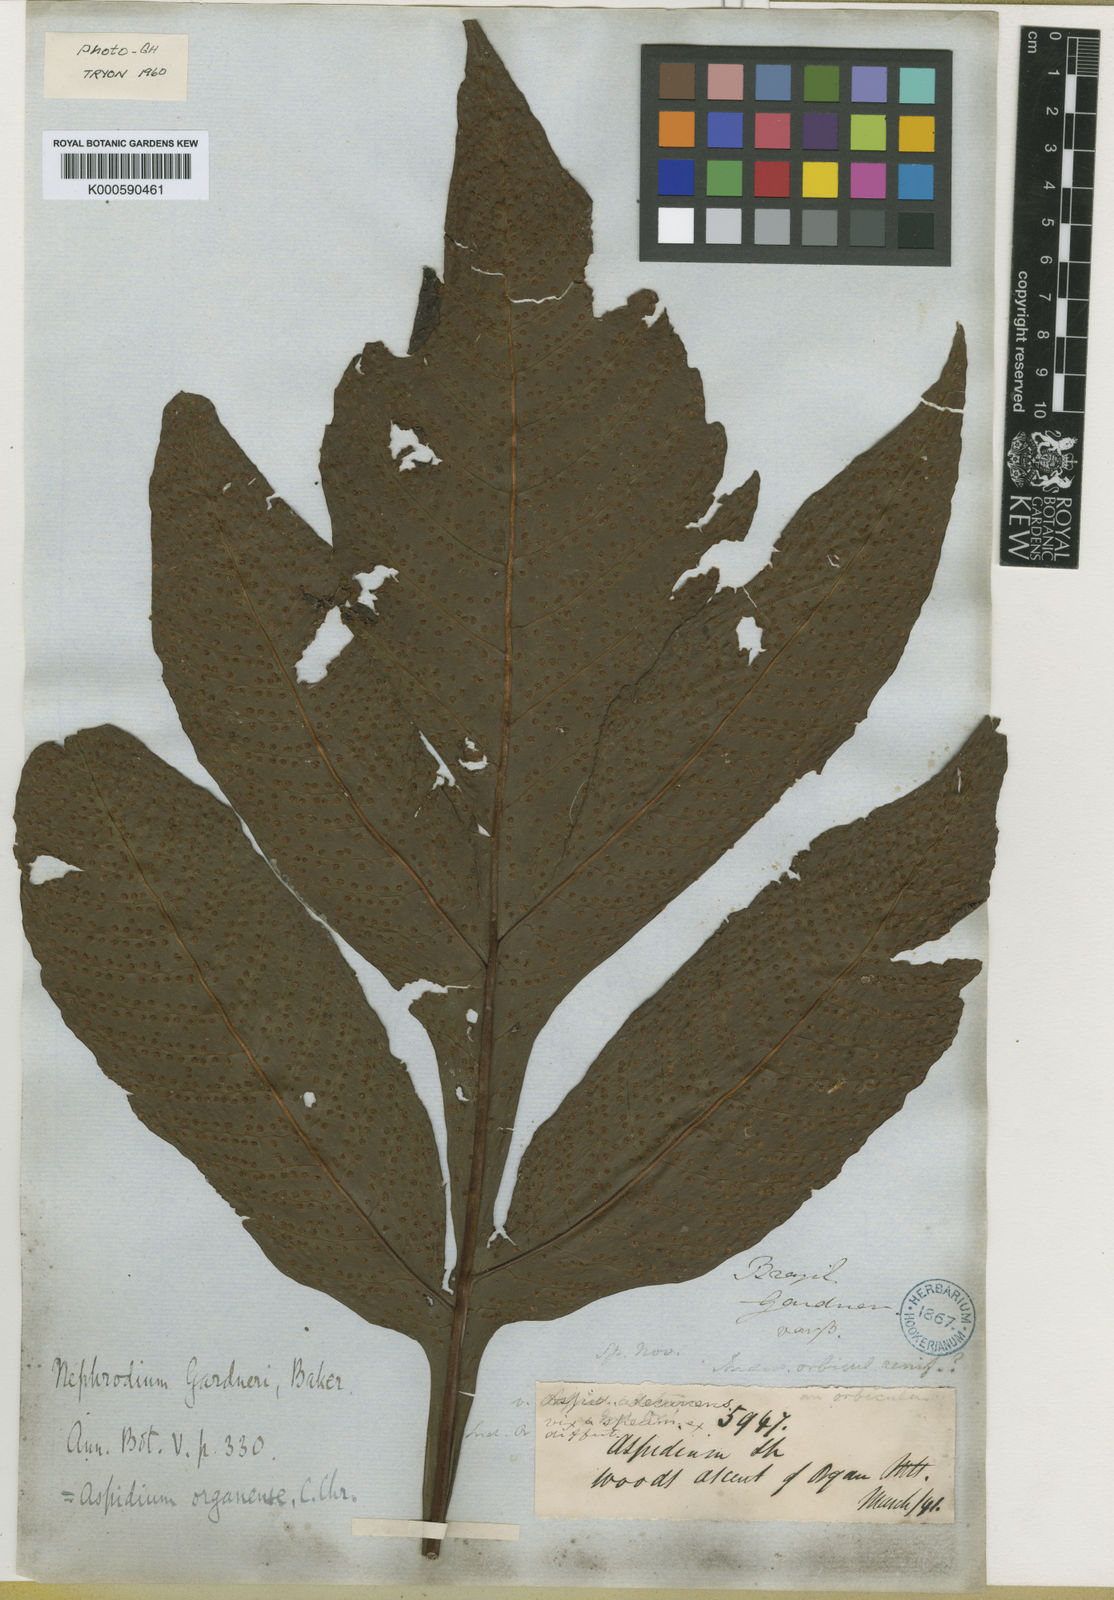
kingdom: Plantae
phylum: Tracheophyta
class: Polypodiopsida
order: Polypodiales
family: Tectariaceae
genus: Tectaria
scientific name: Tectaria organensis
